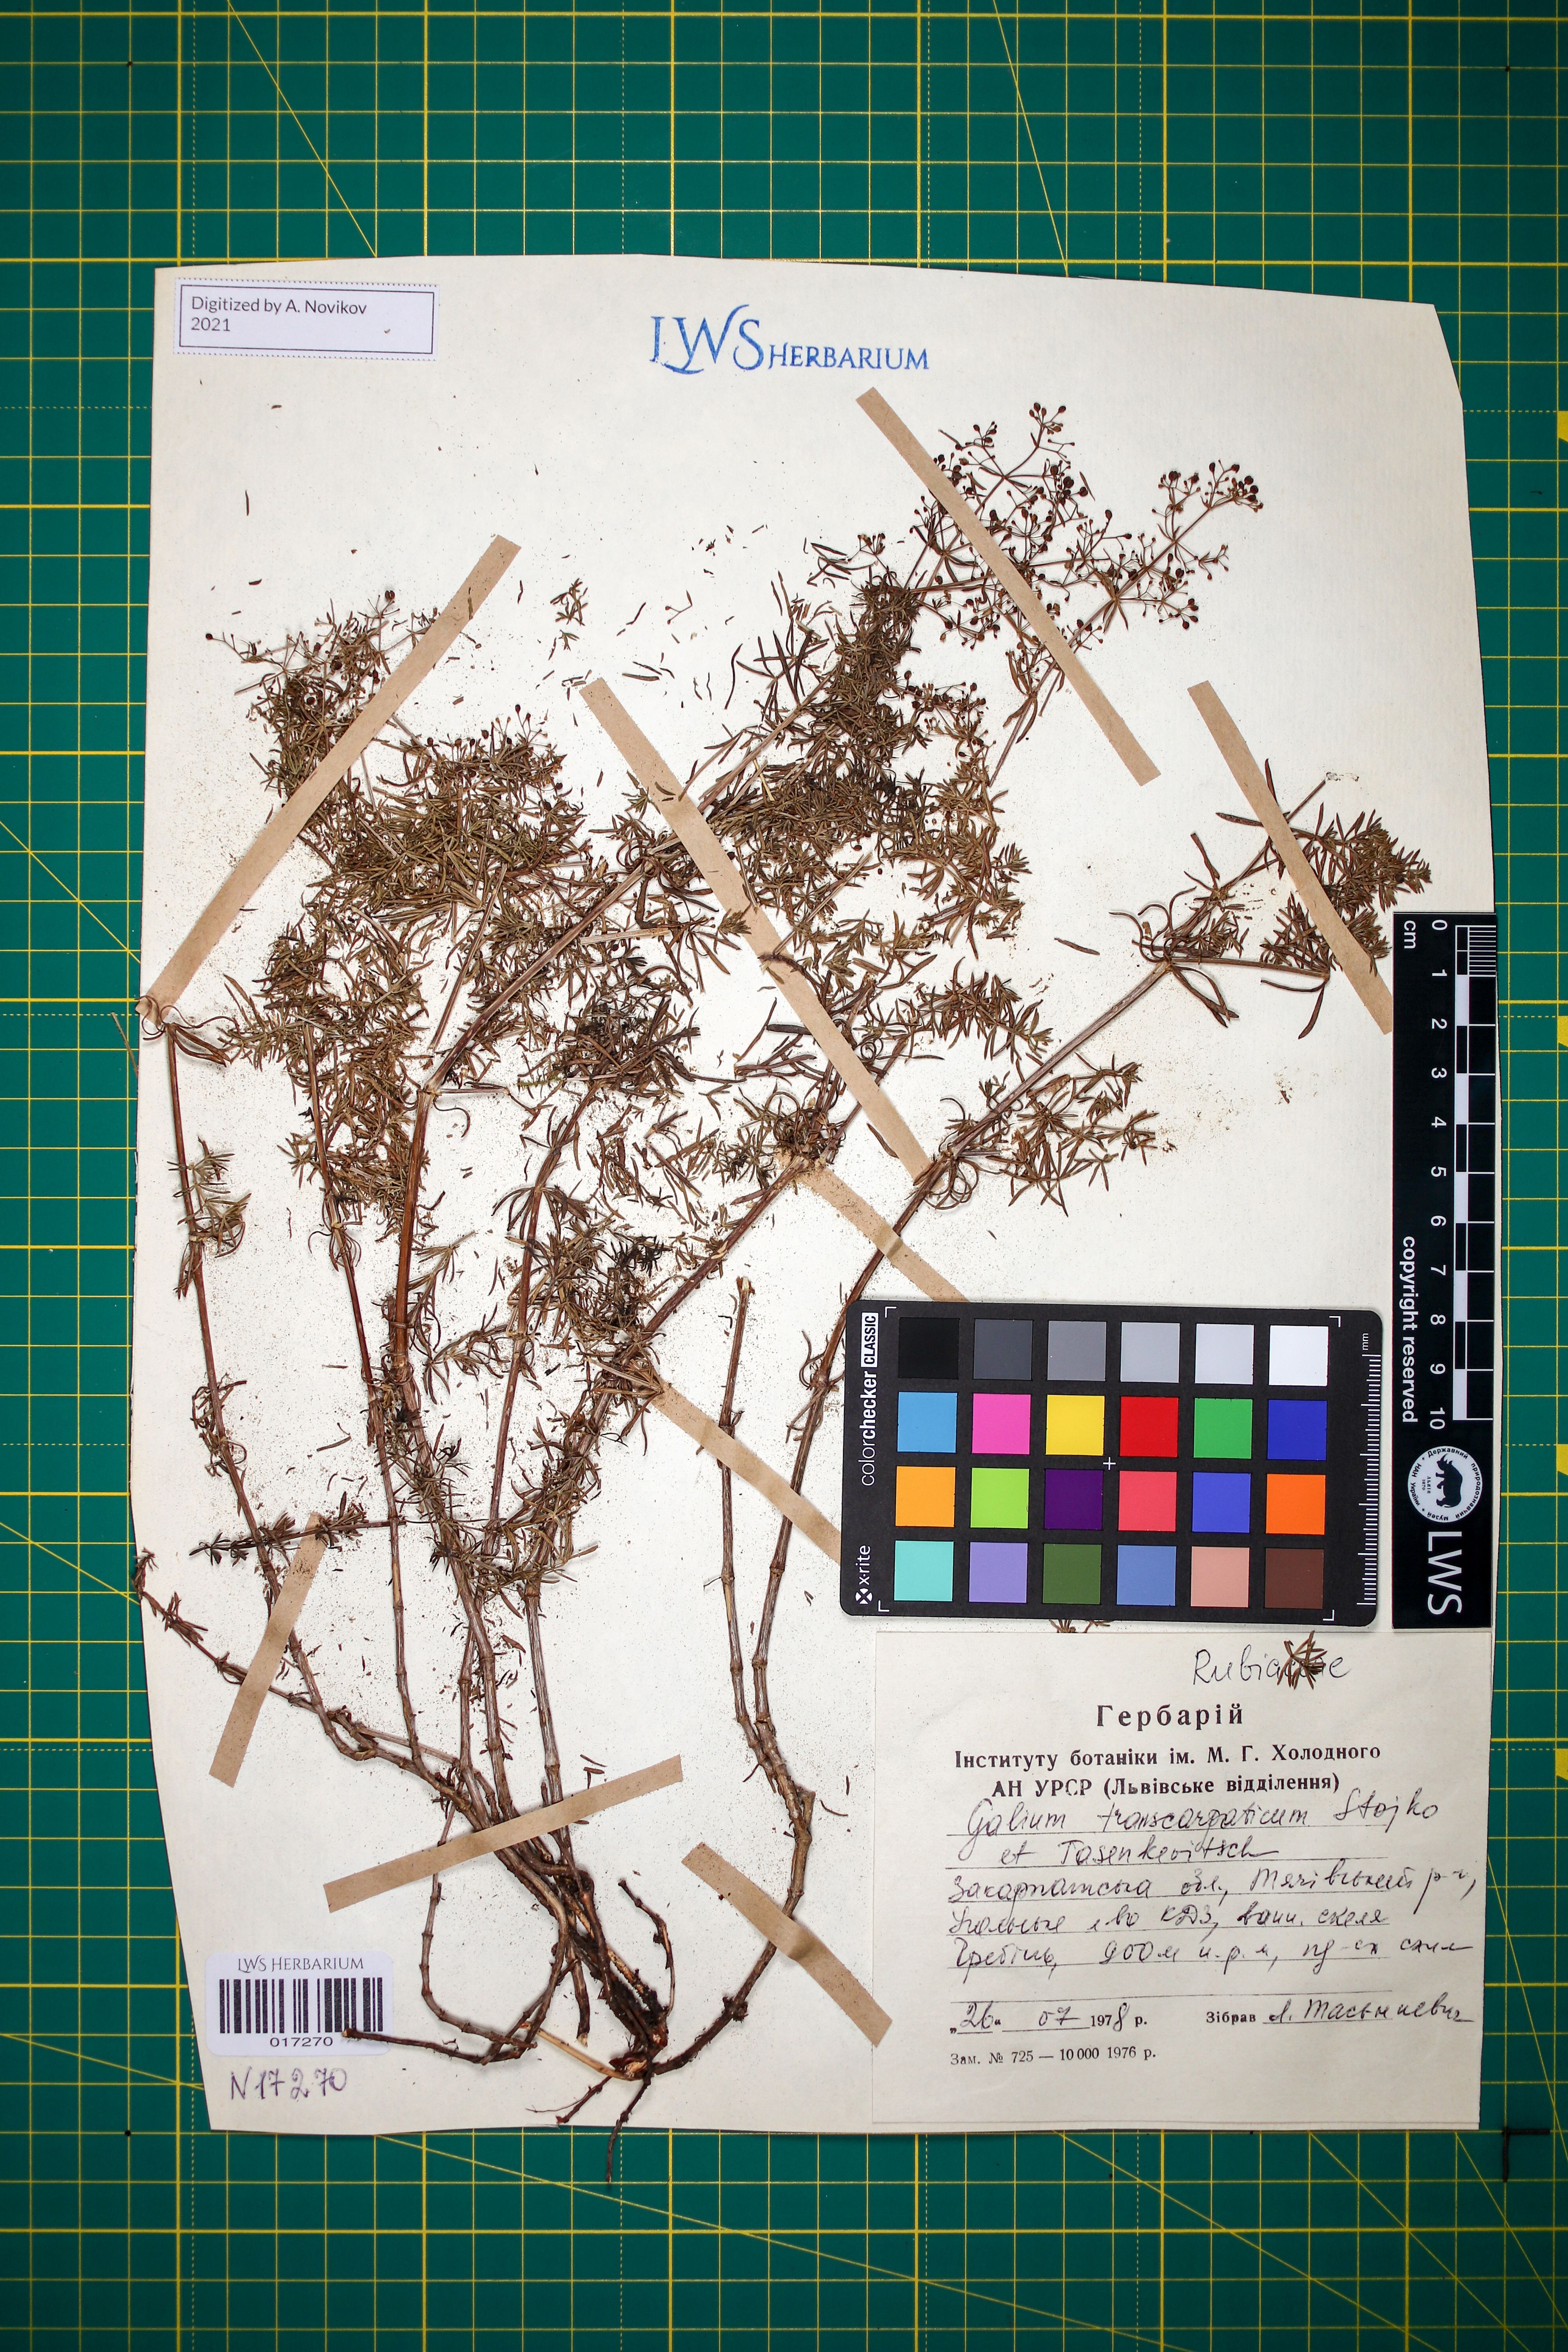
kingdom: Plantae
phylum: Tracheophyta
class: Magnoliopsida
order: Gentianales
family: Rubiaceae
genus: Galium
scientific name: Galium transcarpaticum
